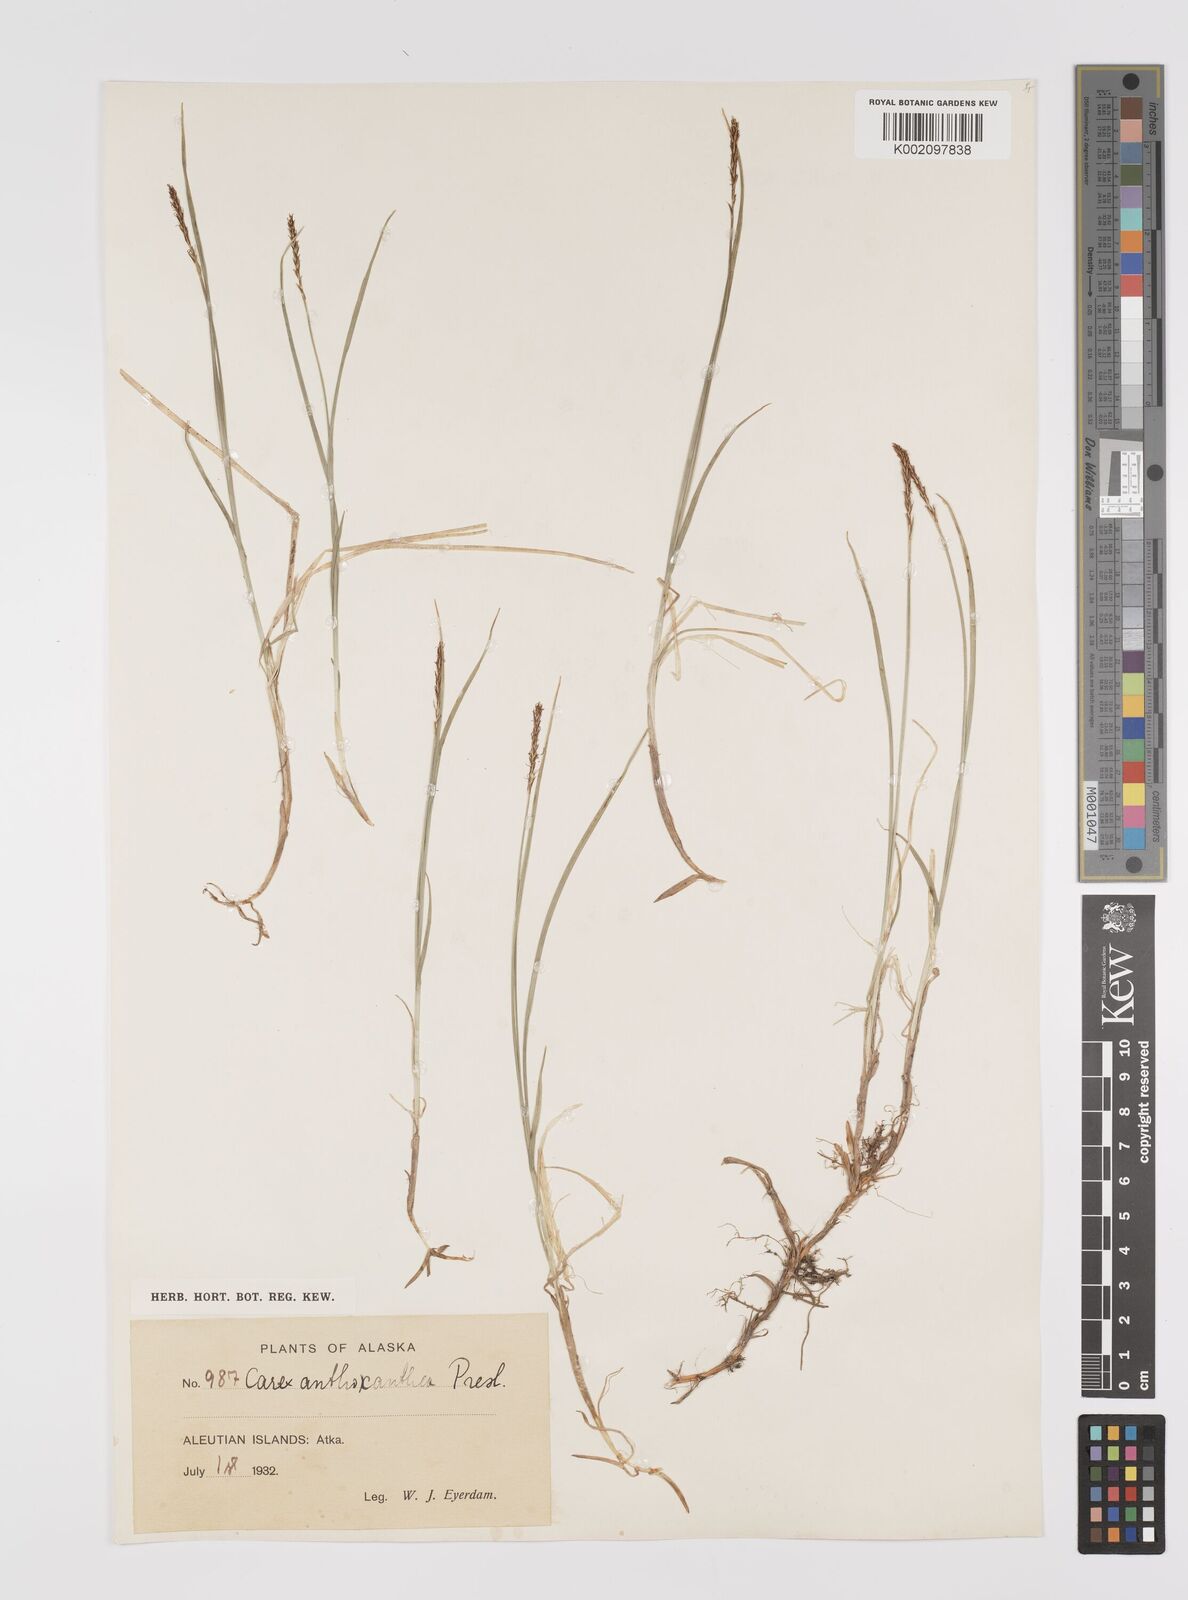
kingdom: Plantae
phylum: Tracheophyta
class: Liliopsida
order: Poales
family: Cyperaceae
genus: Carex
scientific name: Carex anthoxanthea
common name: Grassy-slope arctic sedge
